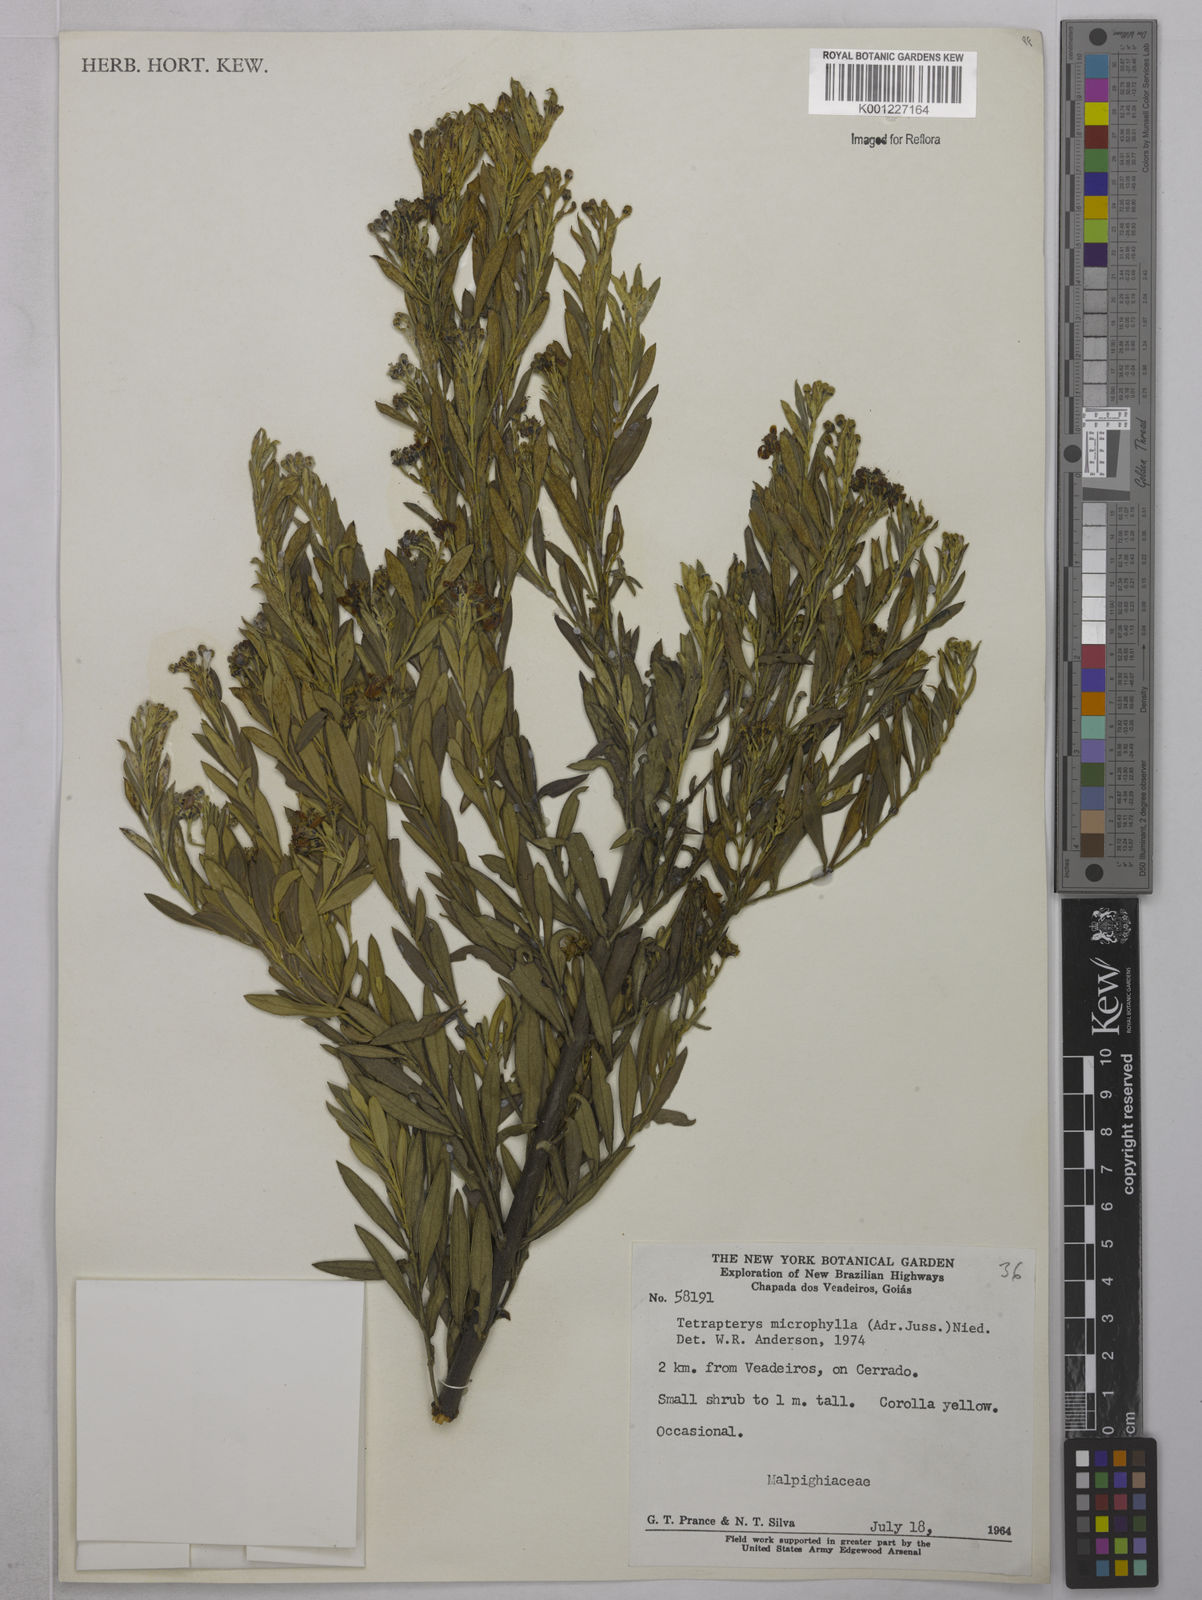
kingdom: Plantae
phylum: Tracheophyta
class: Magnoliopsida
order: Malpighiales
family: Malpighiaceae
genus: Glicophyllum
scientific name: Glicophyllum microphyllum
